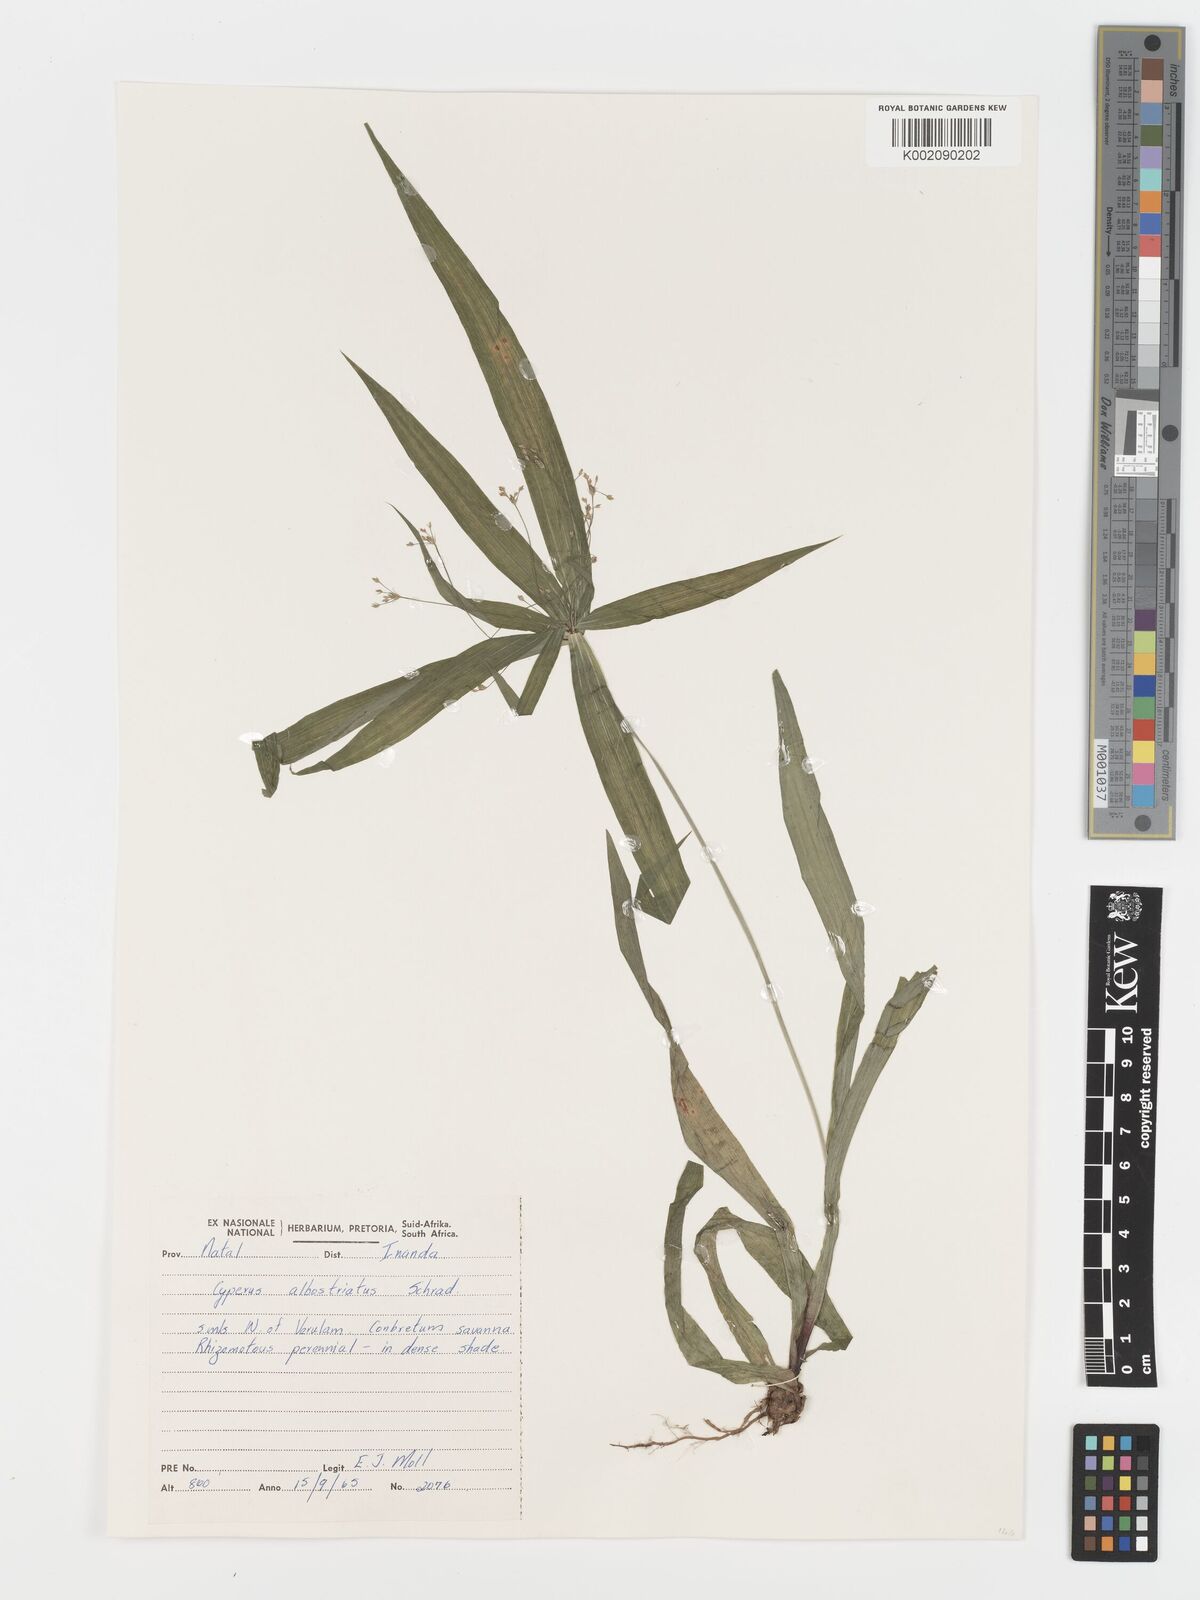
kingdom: Plantae
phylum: Tracheophyta
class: Liliopsida
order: Poales
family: Cyperaceae
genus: Cyperus
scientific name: Cyperus albostriatus
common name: Dwarf umbrella-grass
